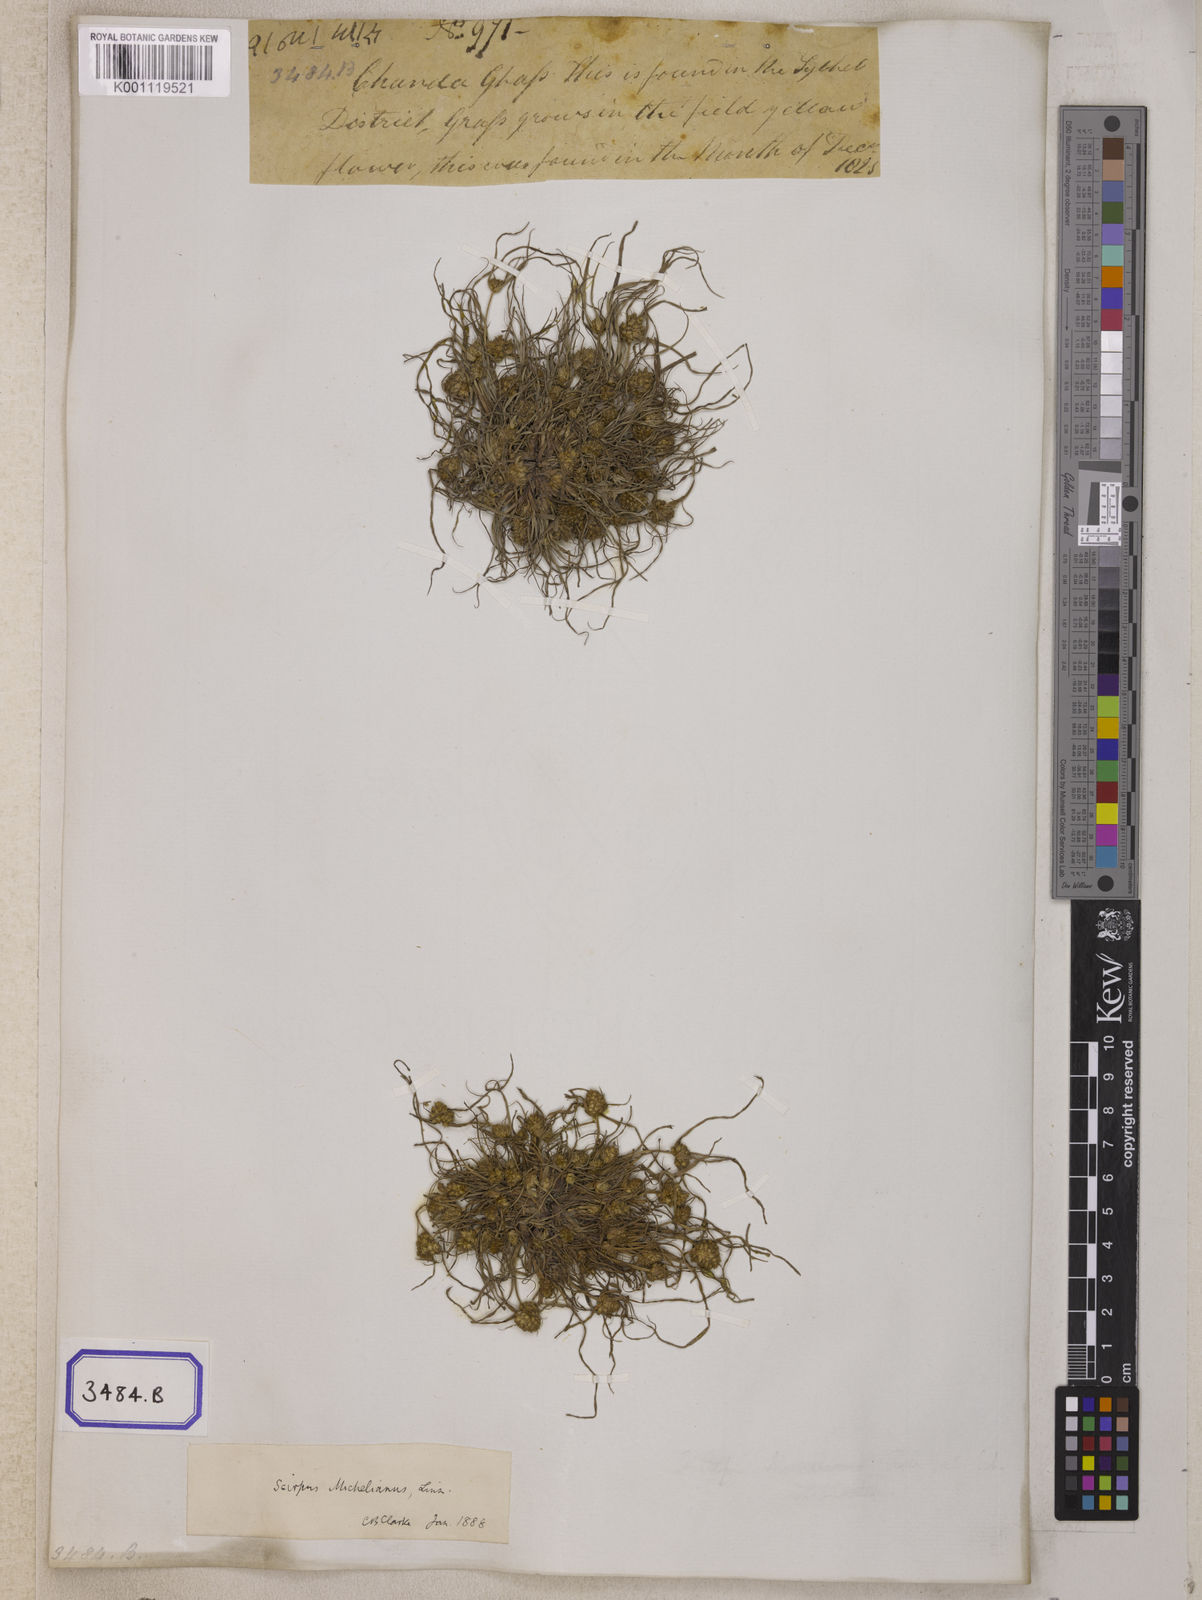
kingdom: Plantae
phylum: Tracheophyta
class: Liliopsida
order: Poales
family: Cyperaceae
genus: Isolepis
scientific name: Isolepis
